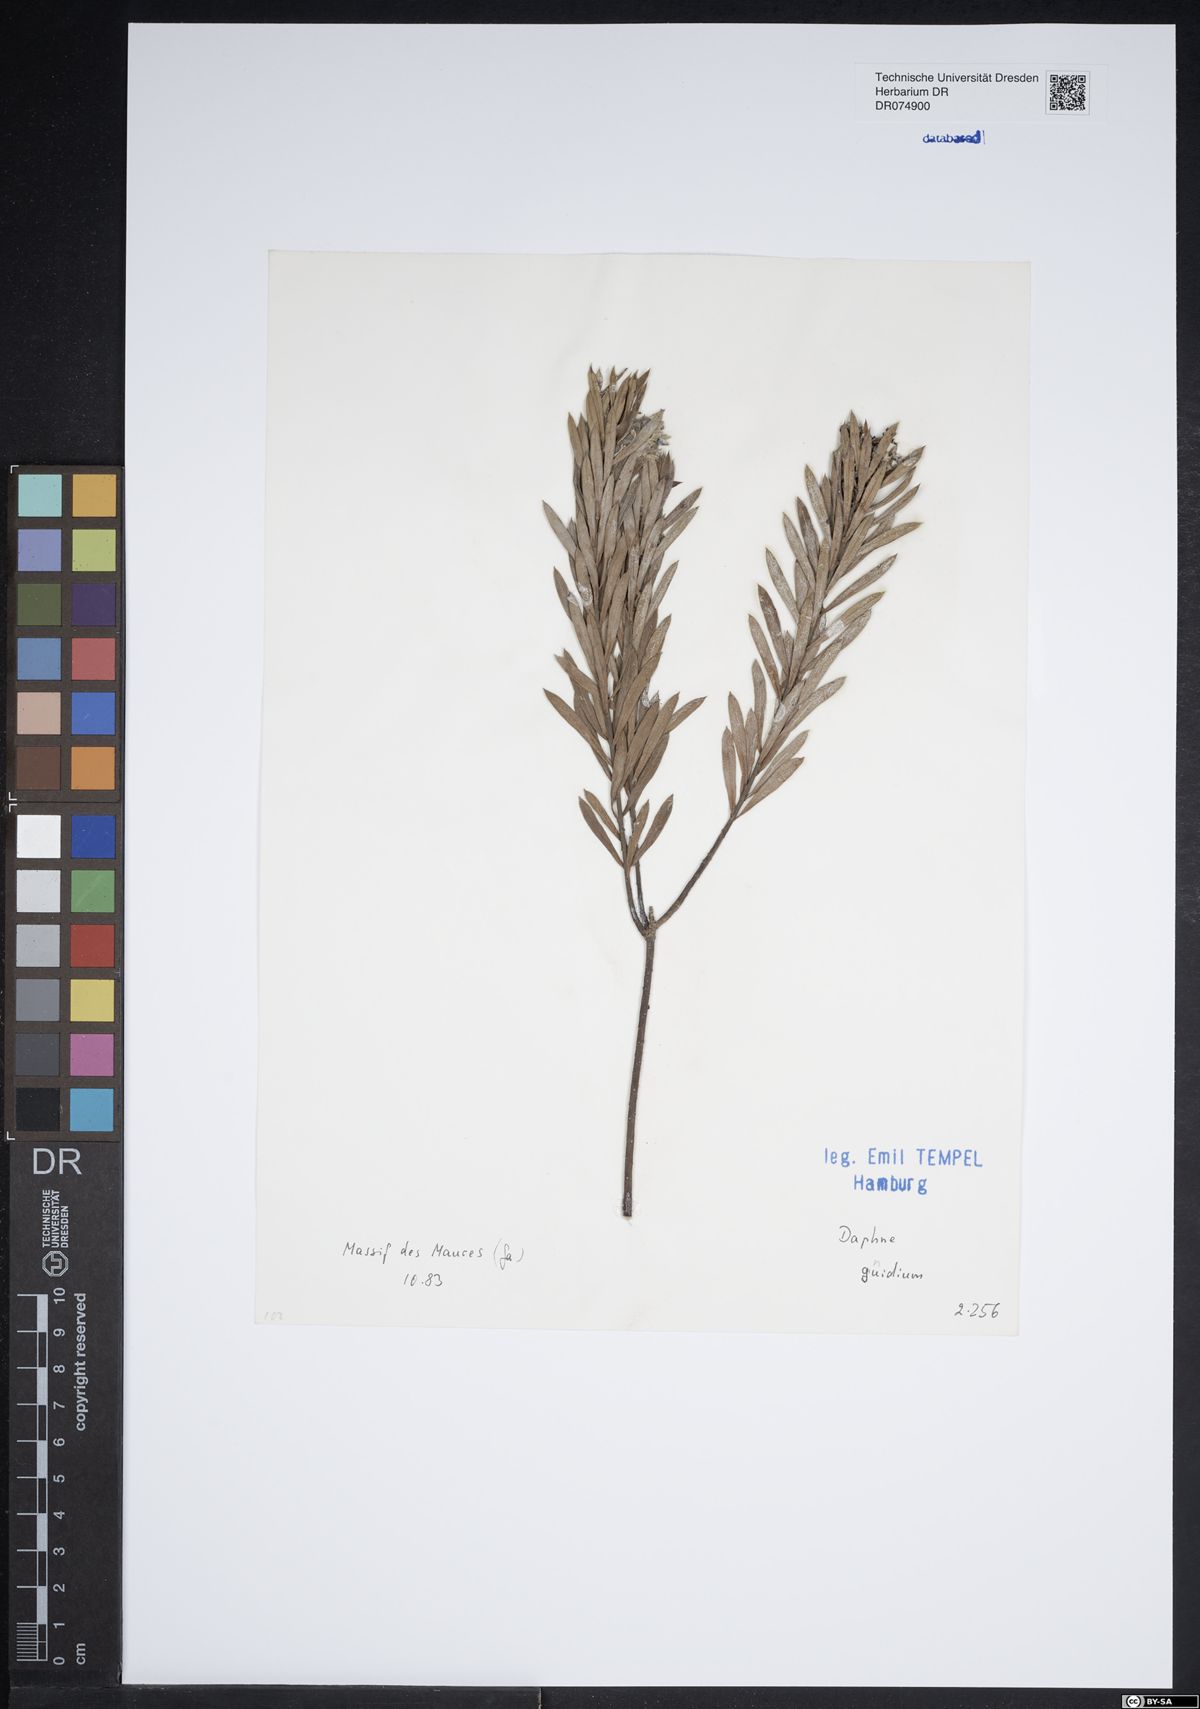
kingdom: Plantae
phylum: Tracheophyta
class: Magnoliopsida
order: Malvales
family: Thymelaeaceae
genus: Daphne
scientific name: Daphne gnidium
